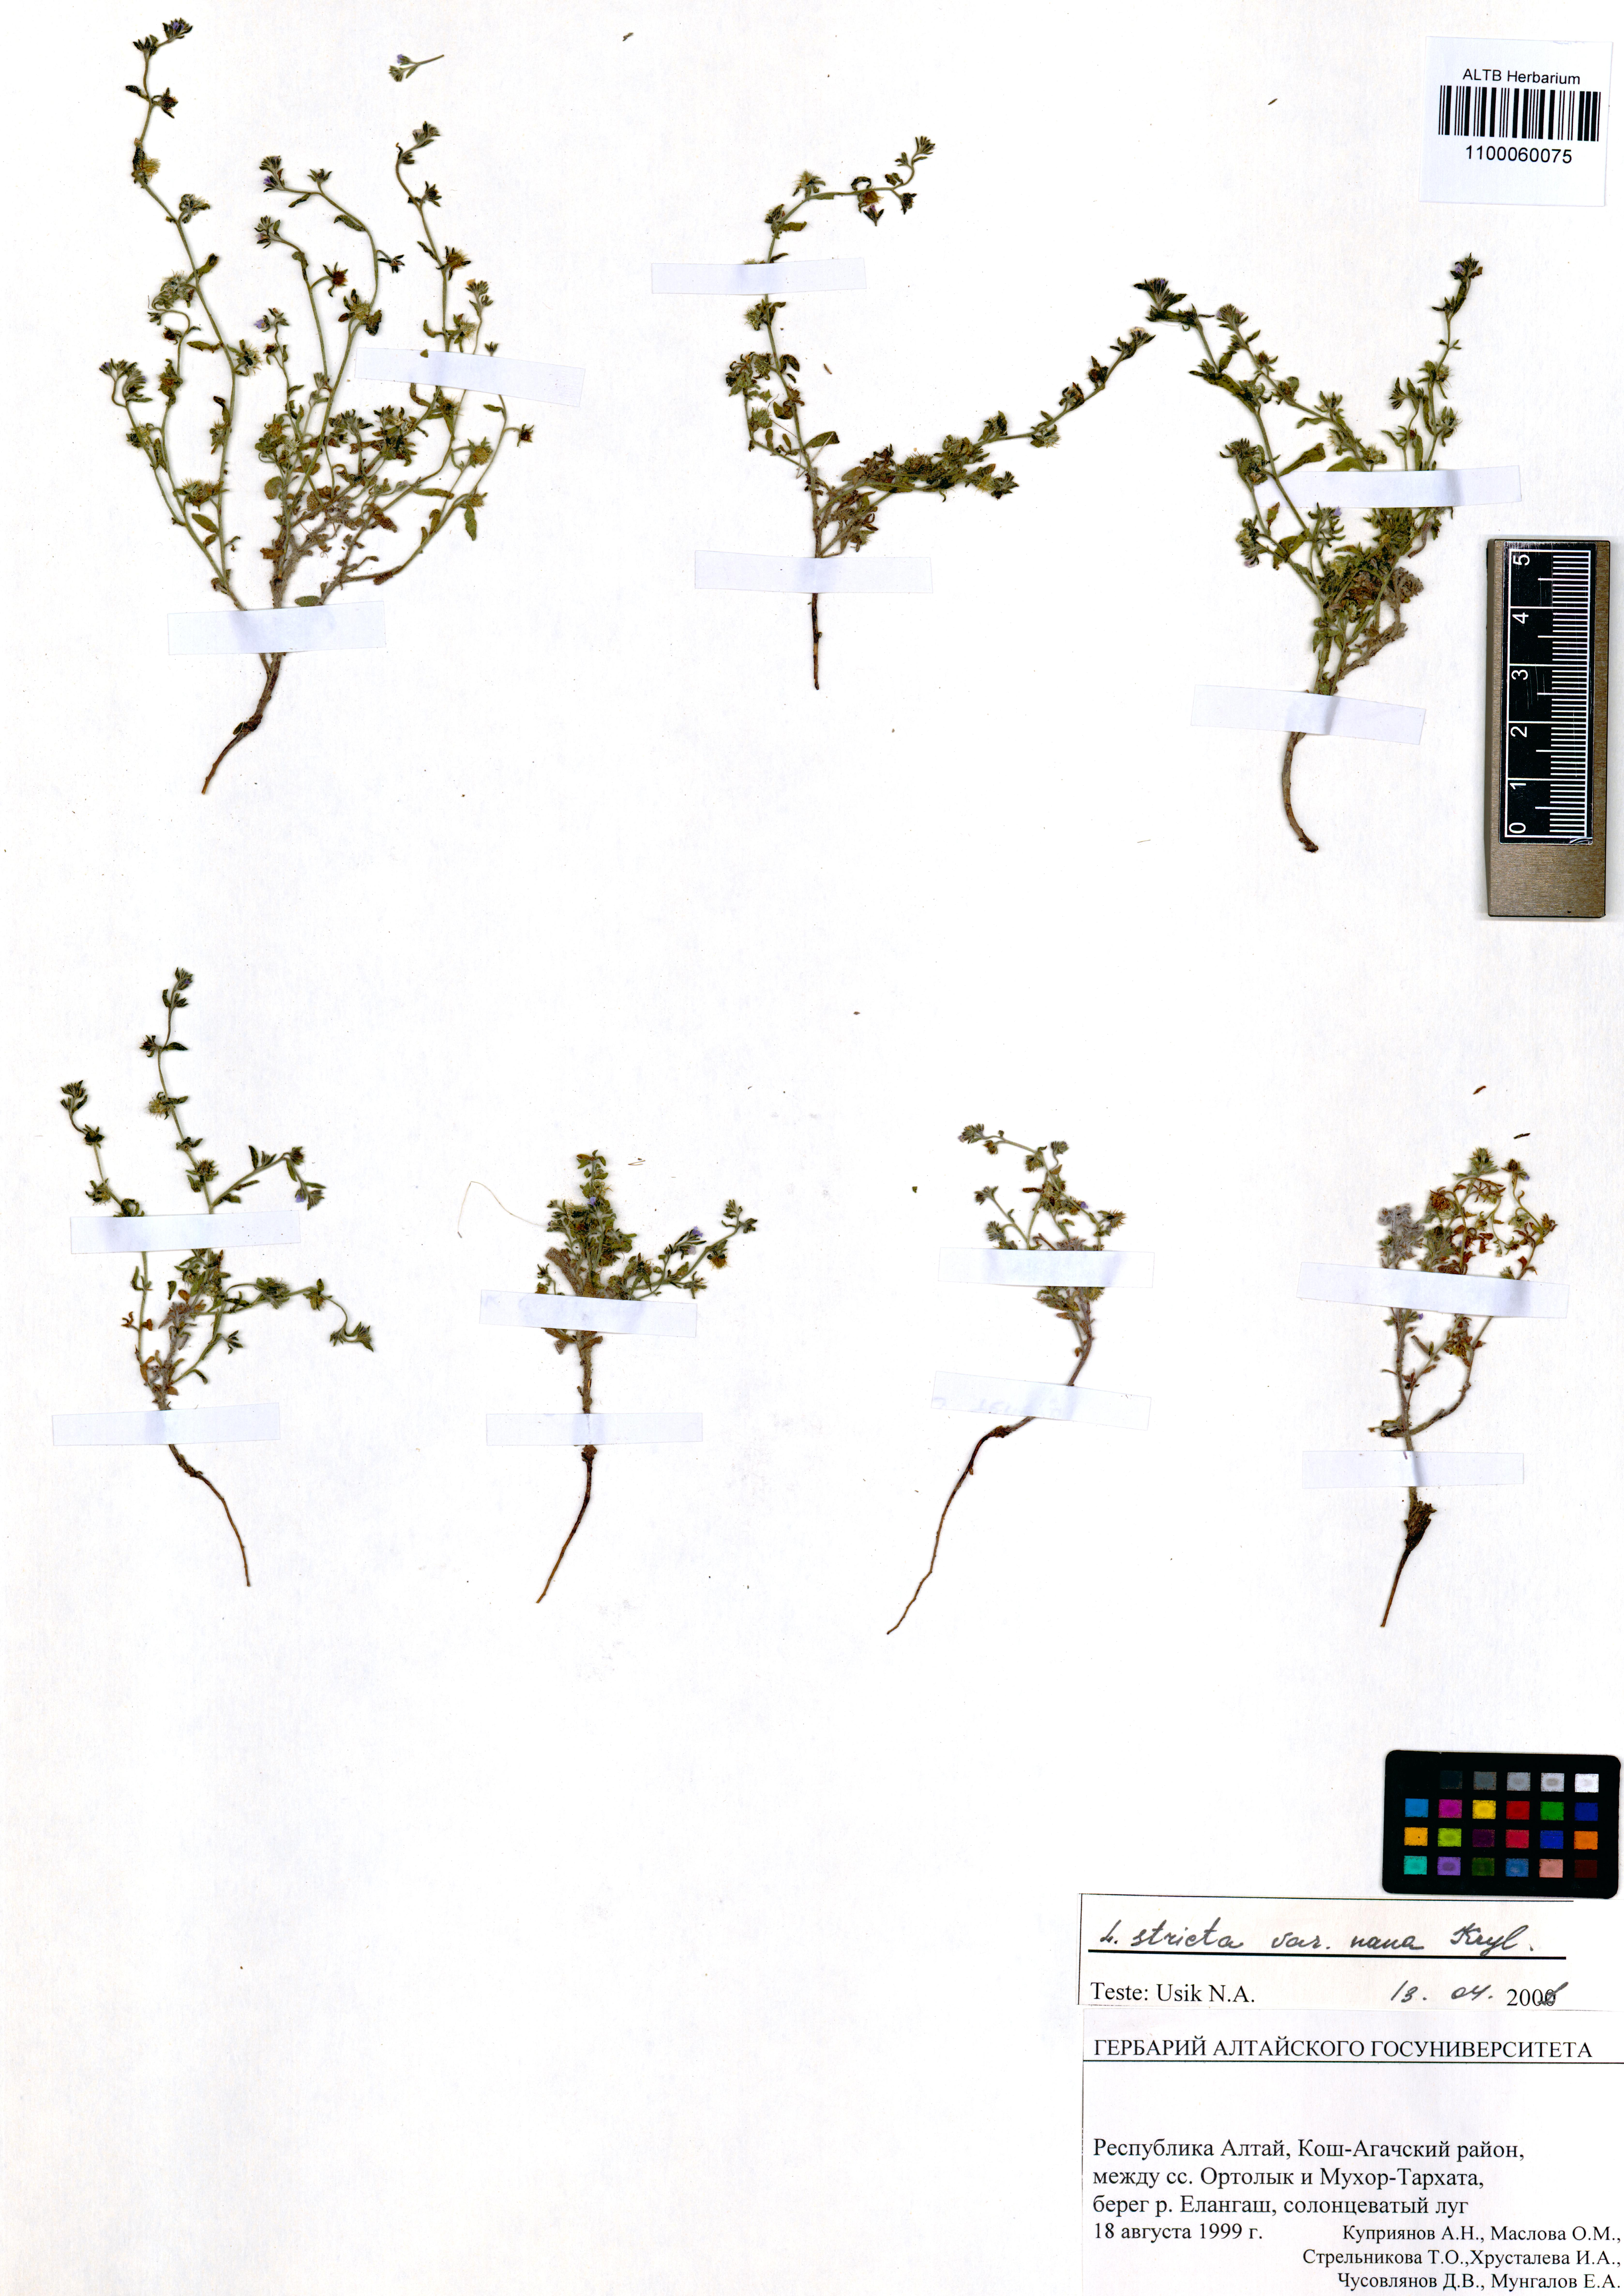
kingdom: Plantae
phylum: Tracheophyta
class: Magnoliopsida
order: Boraginales
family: Boraginaceae
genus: Lappula
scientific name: Lappula stricta
